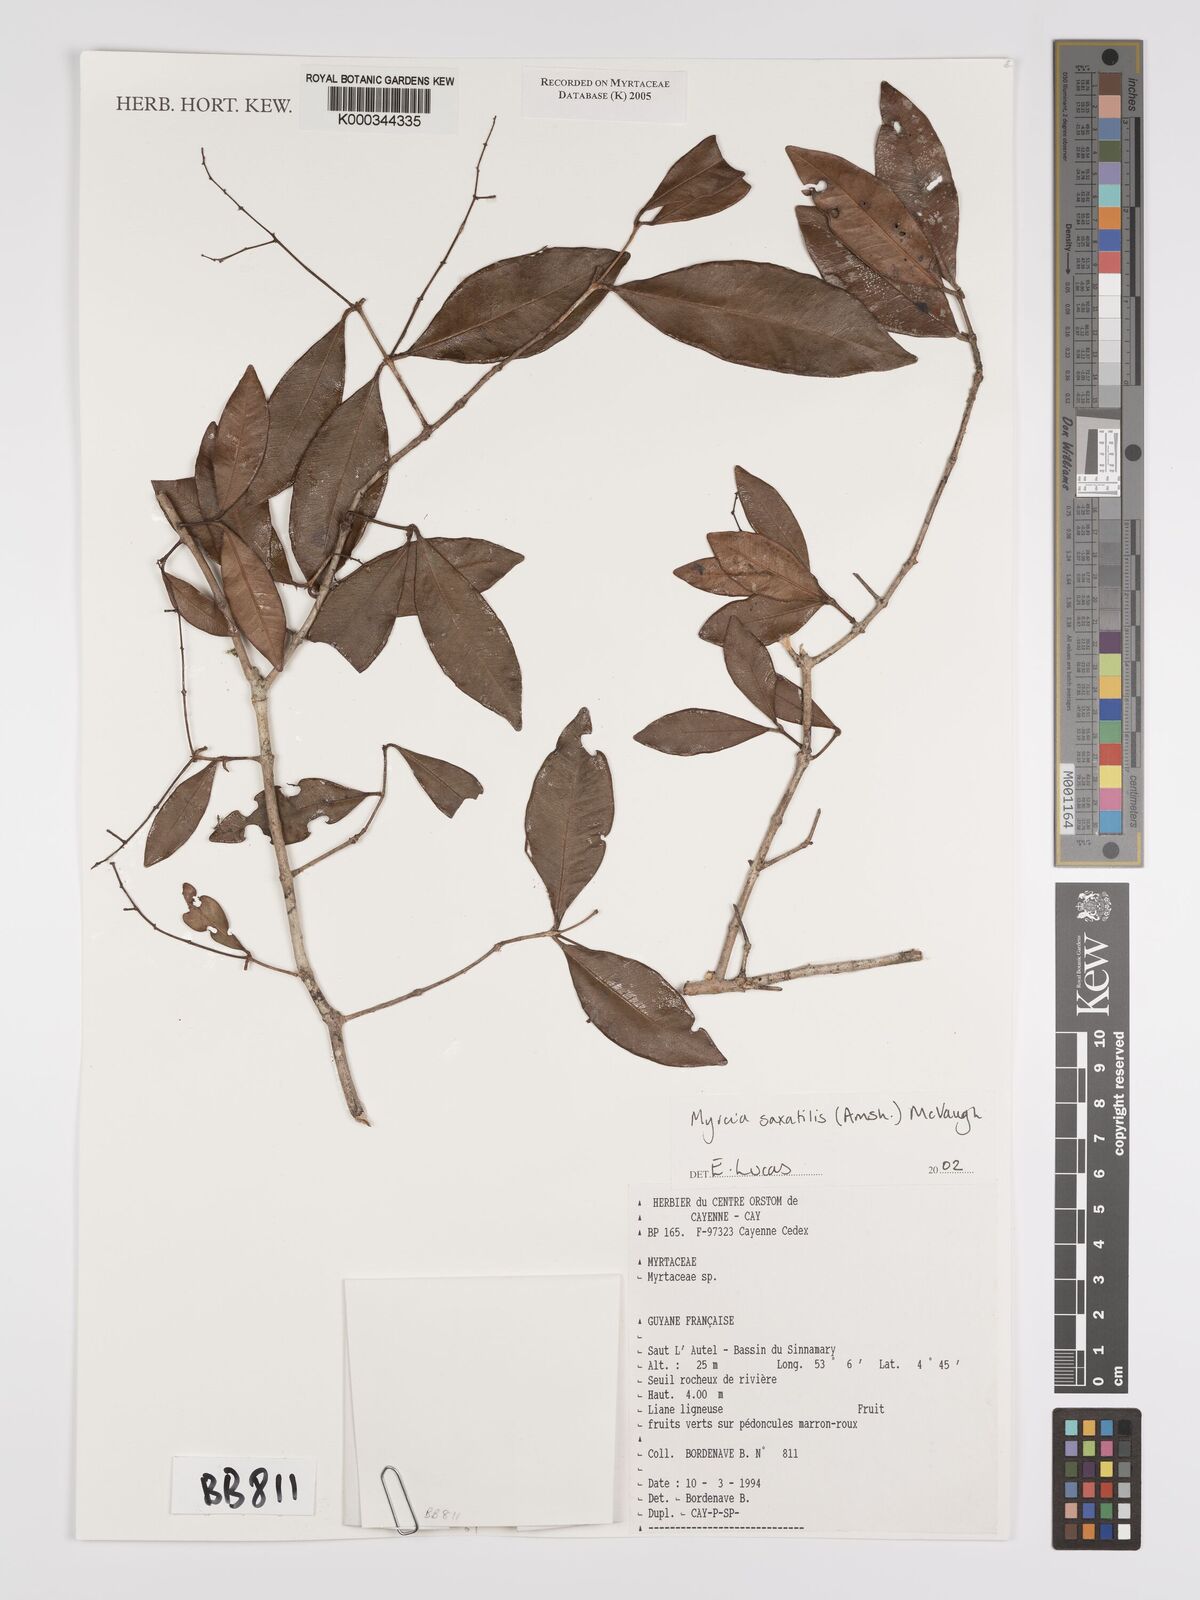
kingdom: Plantae
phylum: Tracheophyta
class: Magnoliopsida
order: Myrtales
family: Myrtaceae
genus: Myrcia
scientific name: Myrcia saxatilis
